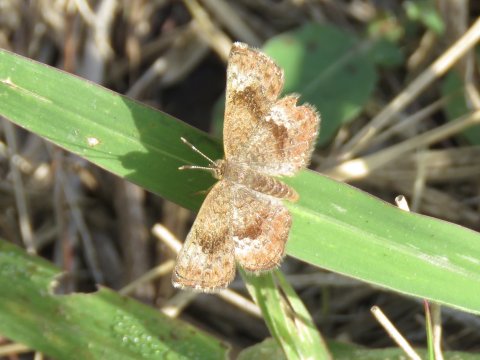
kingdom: Animalia
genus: Calephelis
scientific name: Calephelis perditalis
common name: Rounded Metalmark
